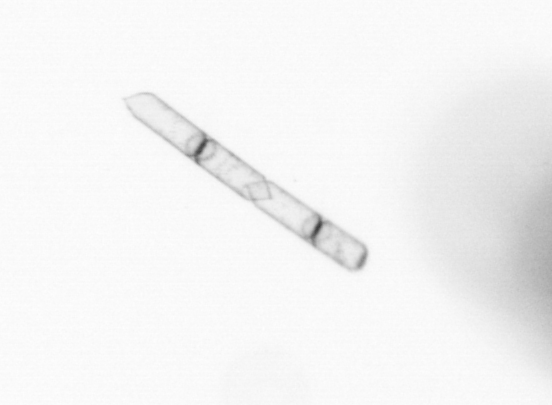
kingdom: Chromista
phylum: Ochrophyta
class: Bacillariophyceae
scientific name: Bacillariophyceae
